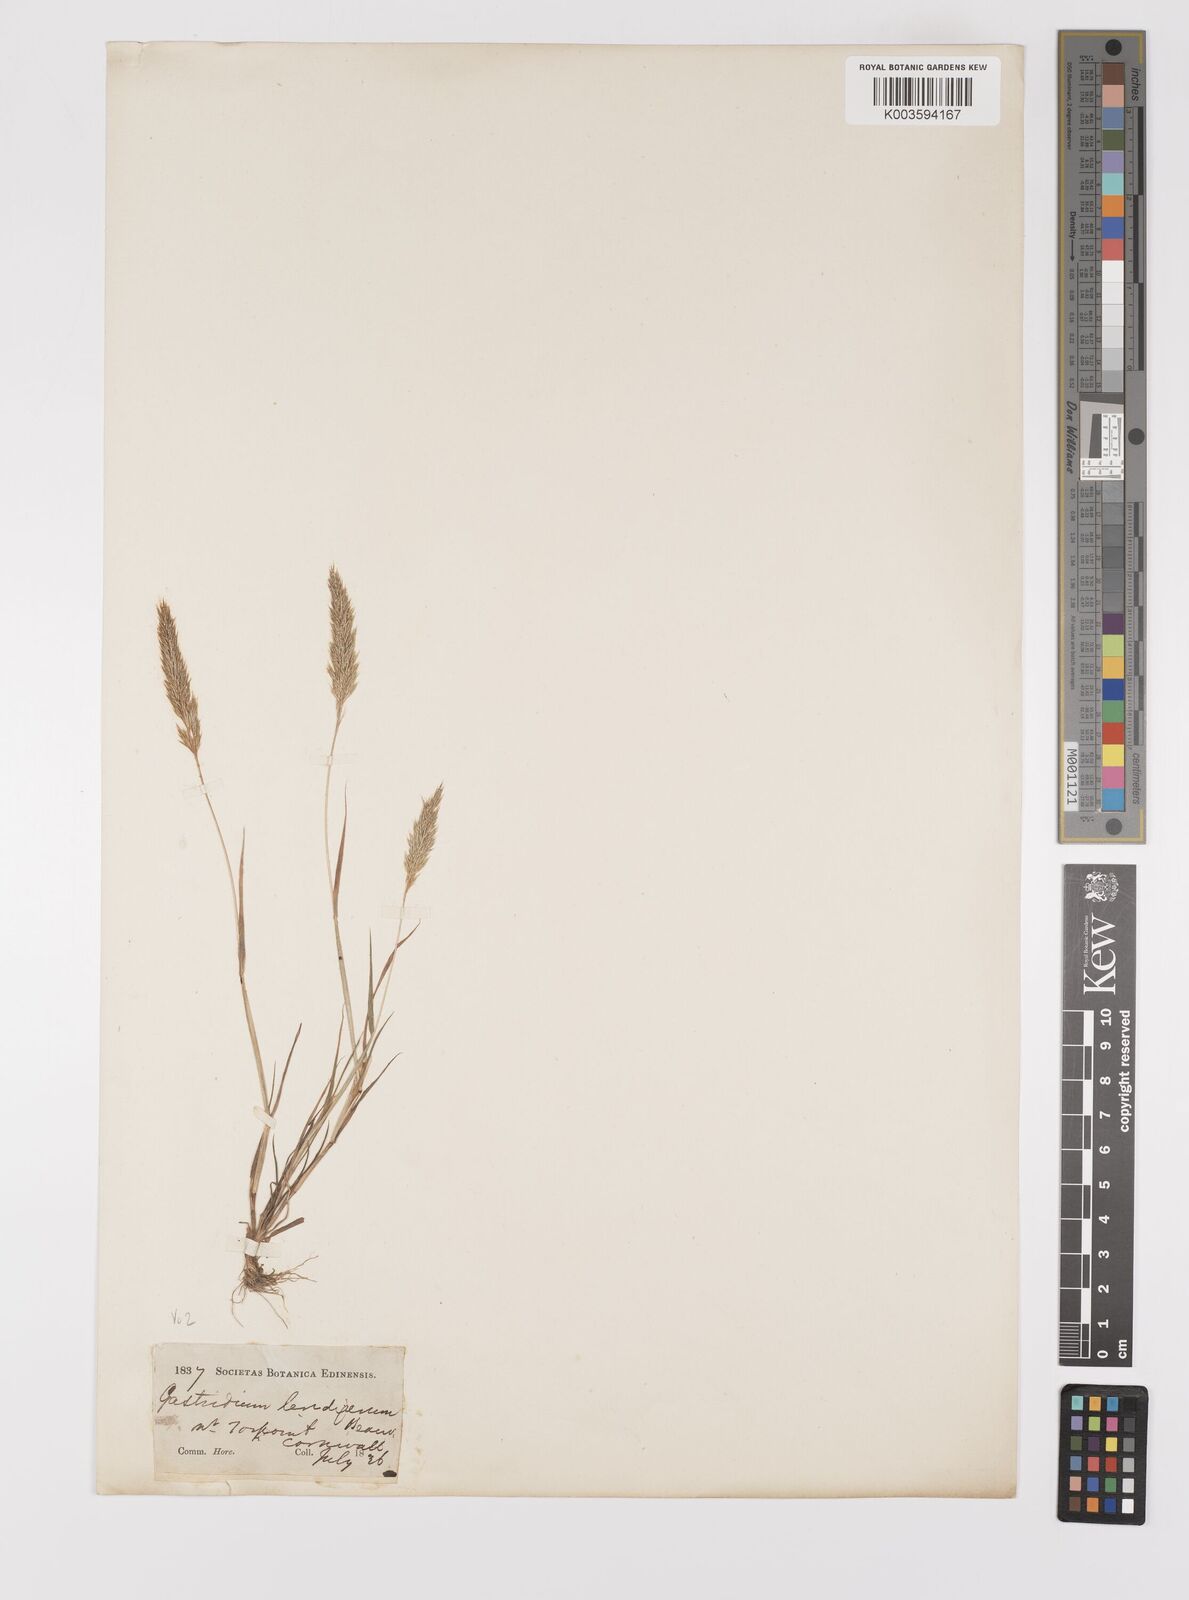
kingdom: Plantae
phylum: Tracheophyta
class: Liliopsida
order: Poales
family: Poaceae
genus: Gastridium
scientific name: Gastridium ventricosum
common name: Nit-grass
